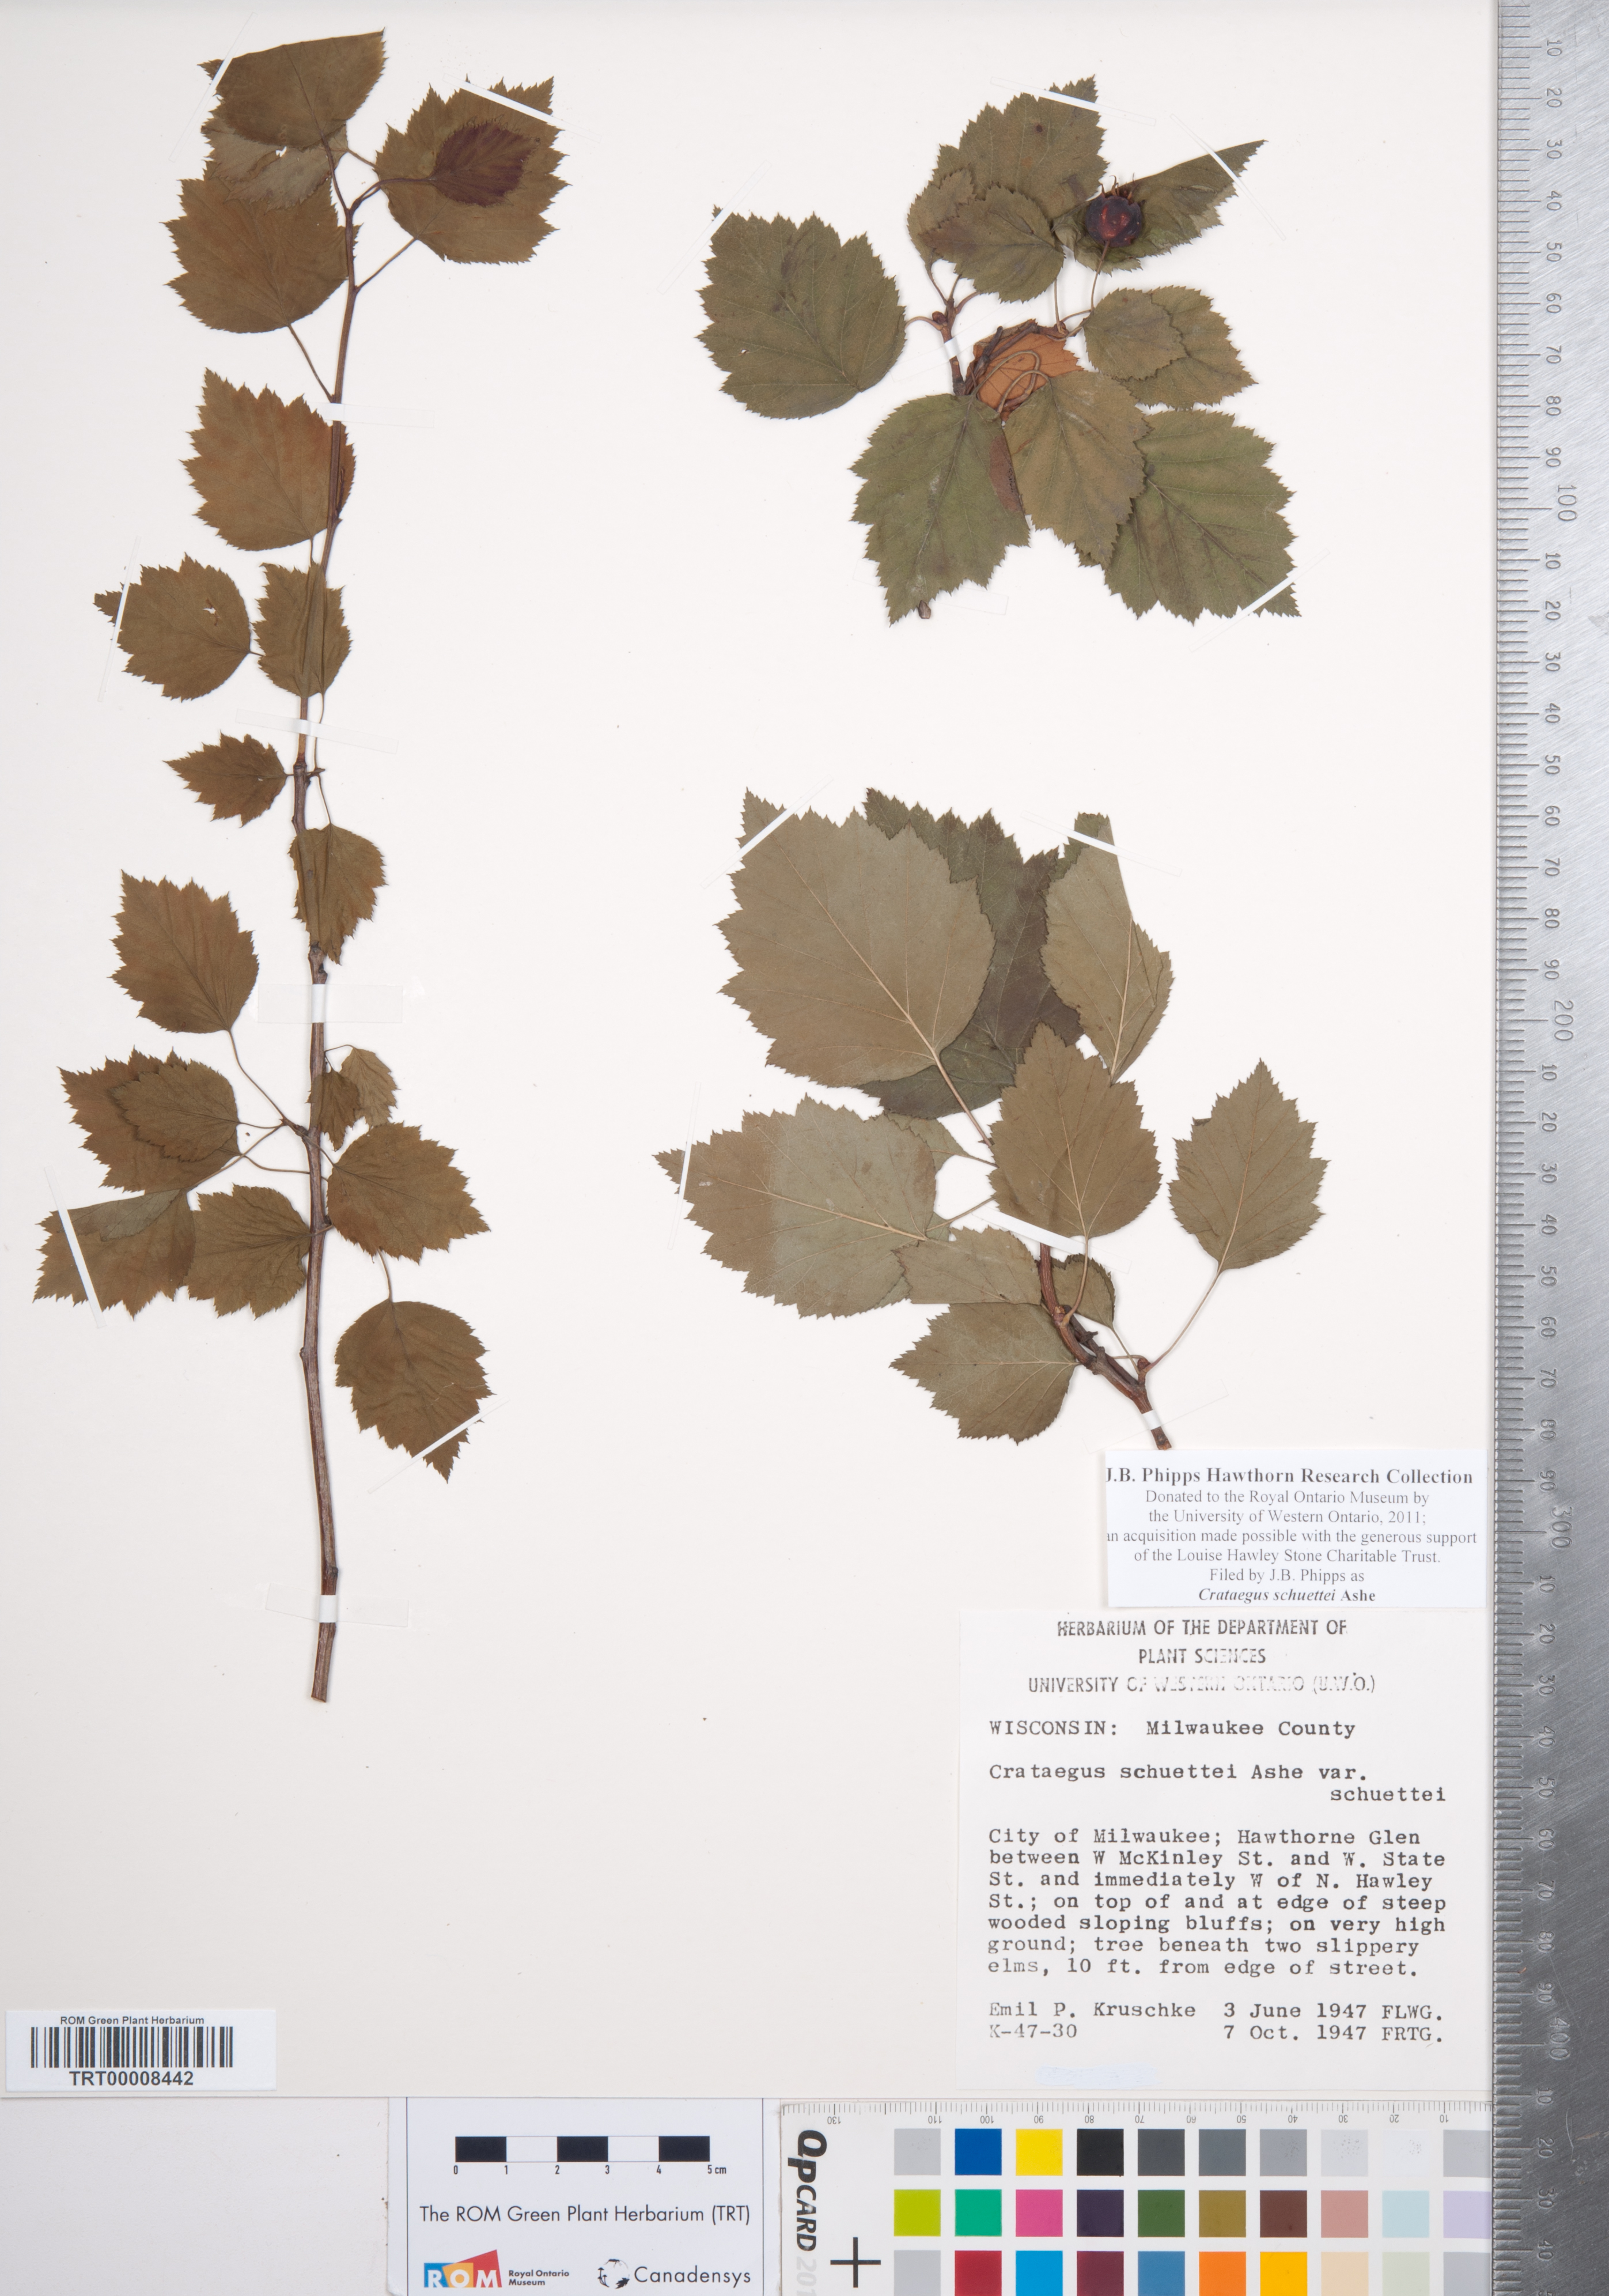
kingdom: Plantae
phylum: Tracheophyta
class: Magnoliopsida
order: Rosales
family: Rosaceae
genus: Crataegus
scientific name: Crataegus schuettei
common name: Schuette's hawthorn
